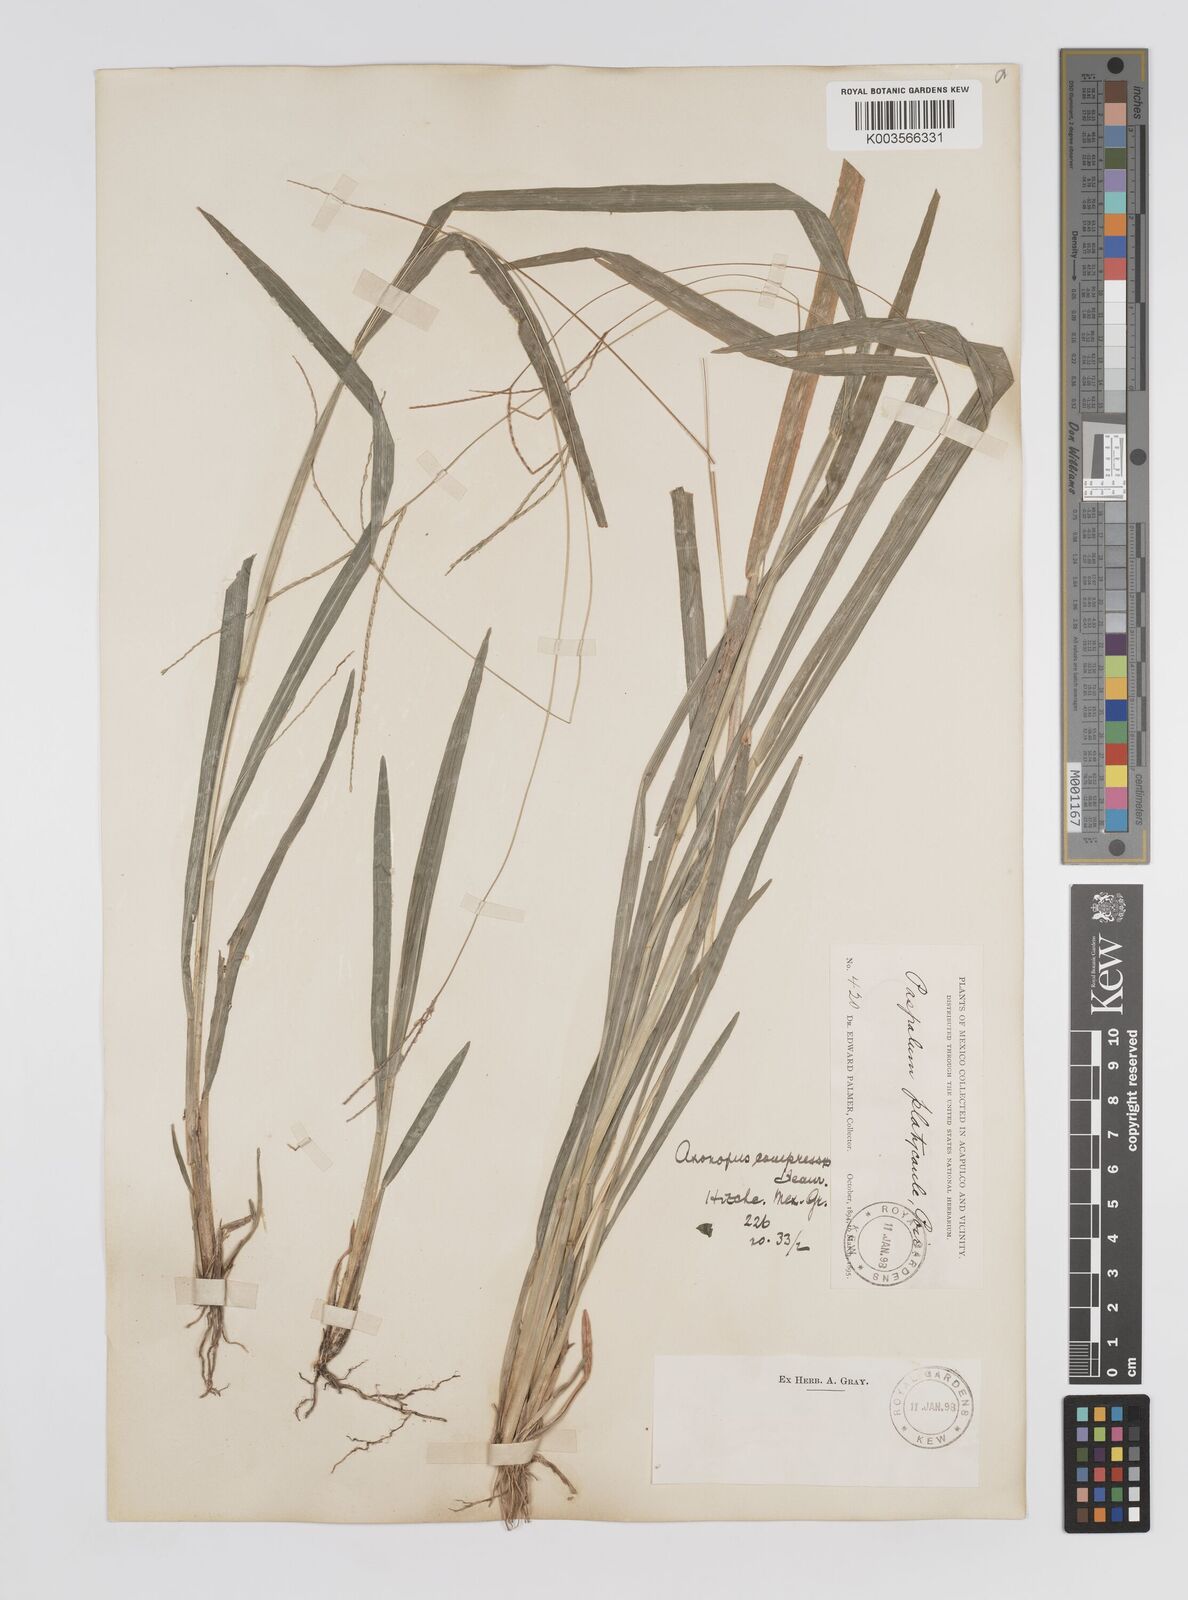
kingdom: Plantae
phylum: Tracheophyta
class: Liliopsida
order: Poales
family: Poaceae
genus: Axonopus
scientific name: Axonopus compressus
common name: American carpet grass
